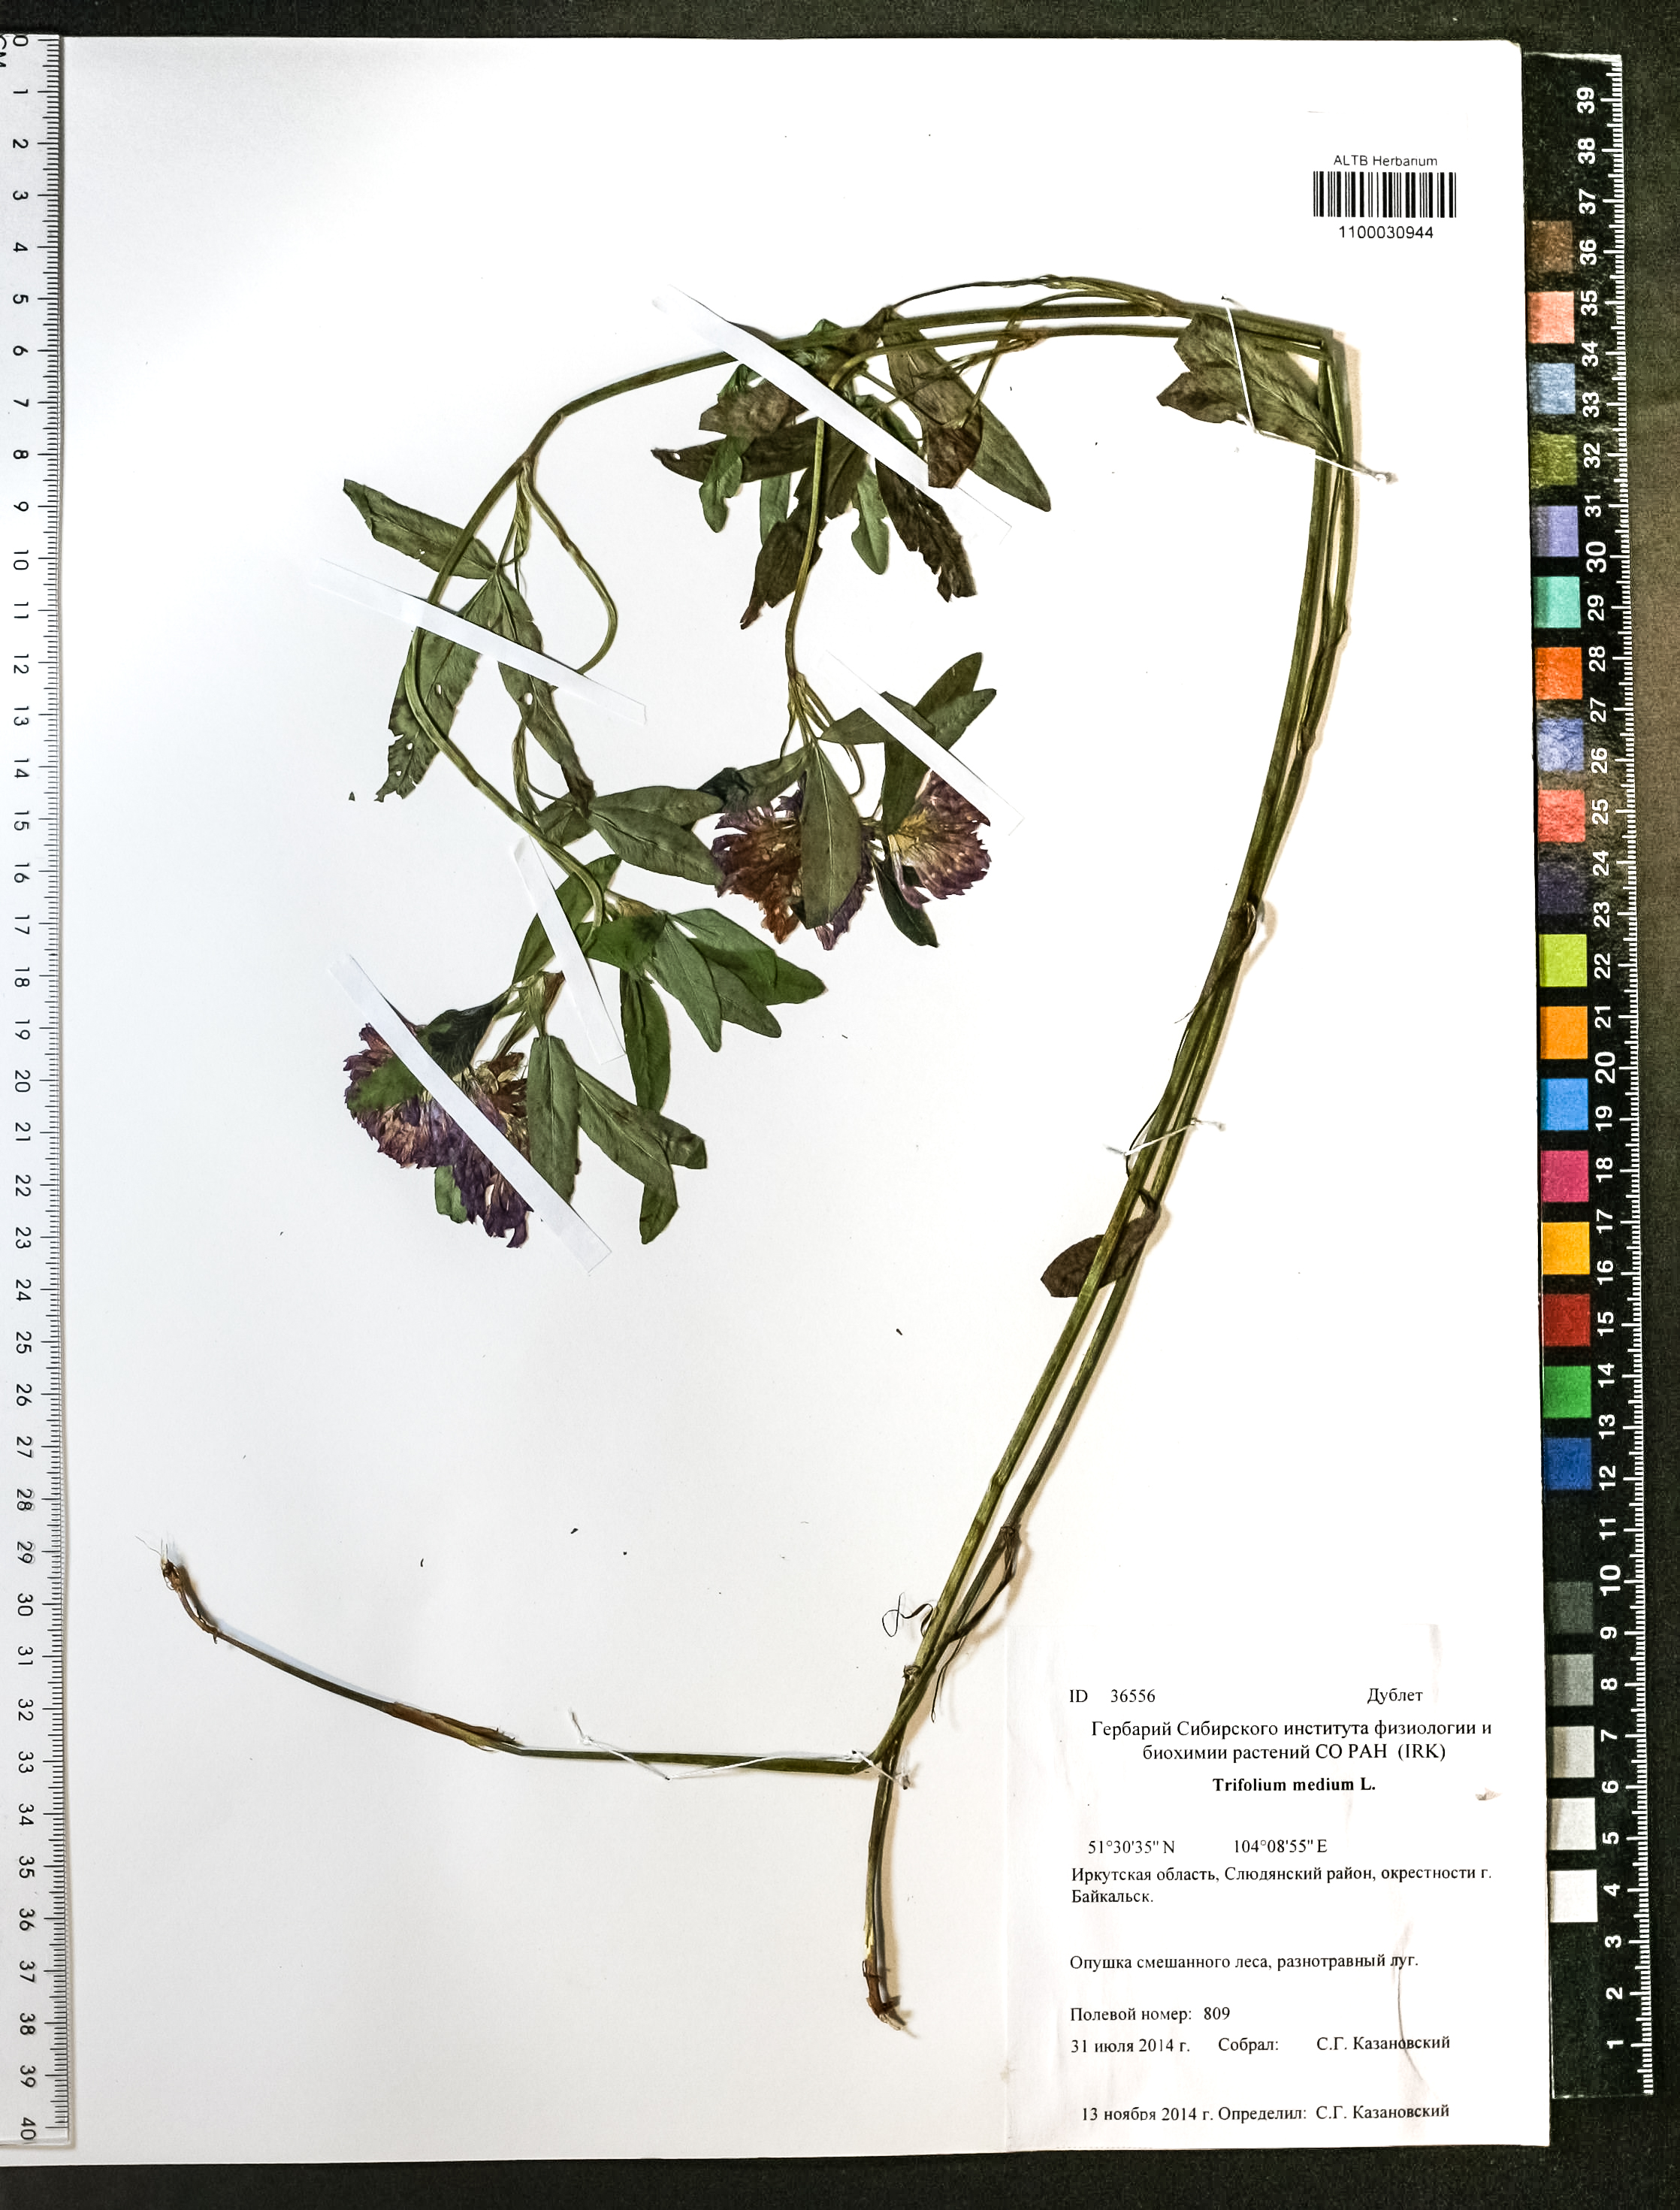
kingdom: Plantae
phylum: Tracheophyta
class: Magnoliopsida
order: Fabales
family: Fabaceae
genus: Trifolium
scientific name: Trifolium medium
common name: Zigzag clover
